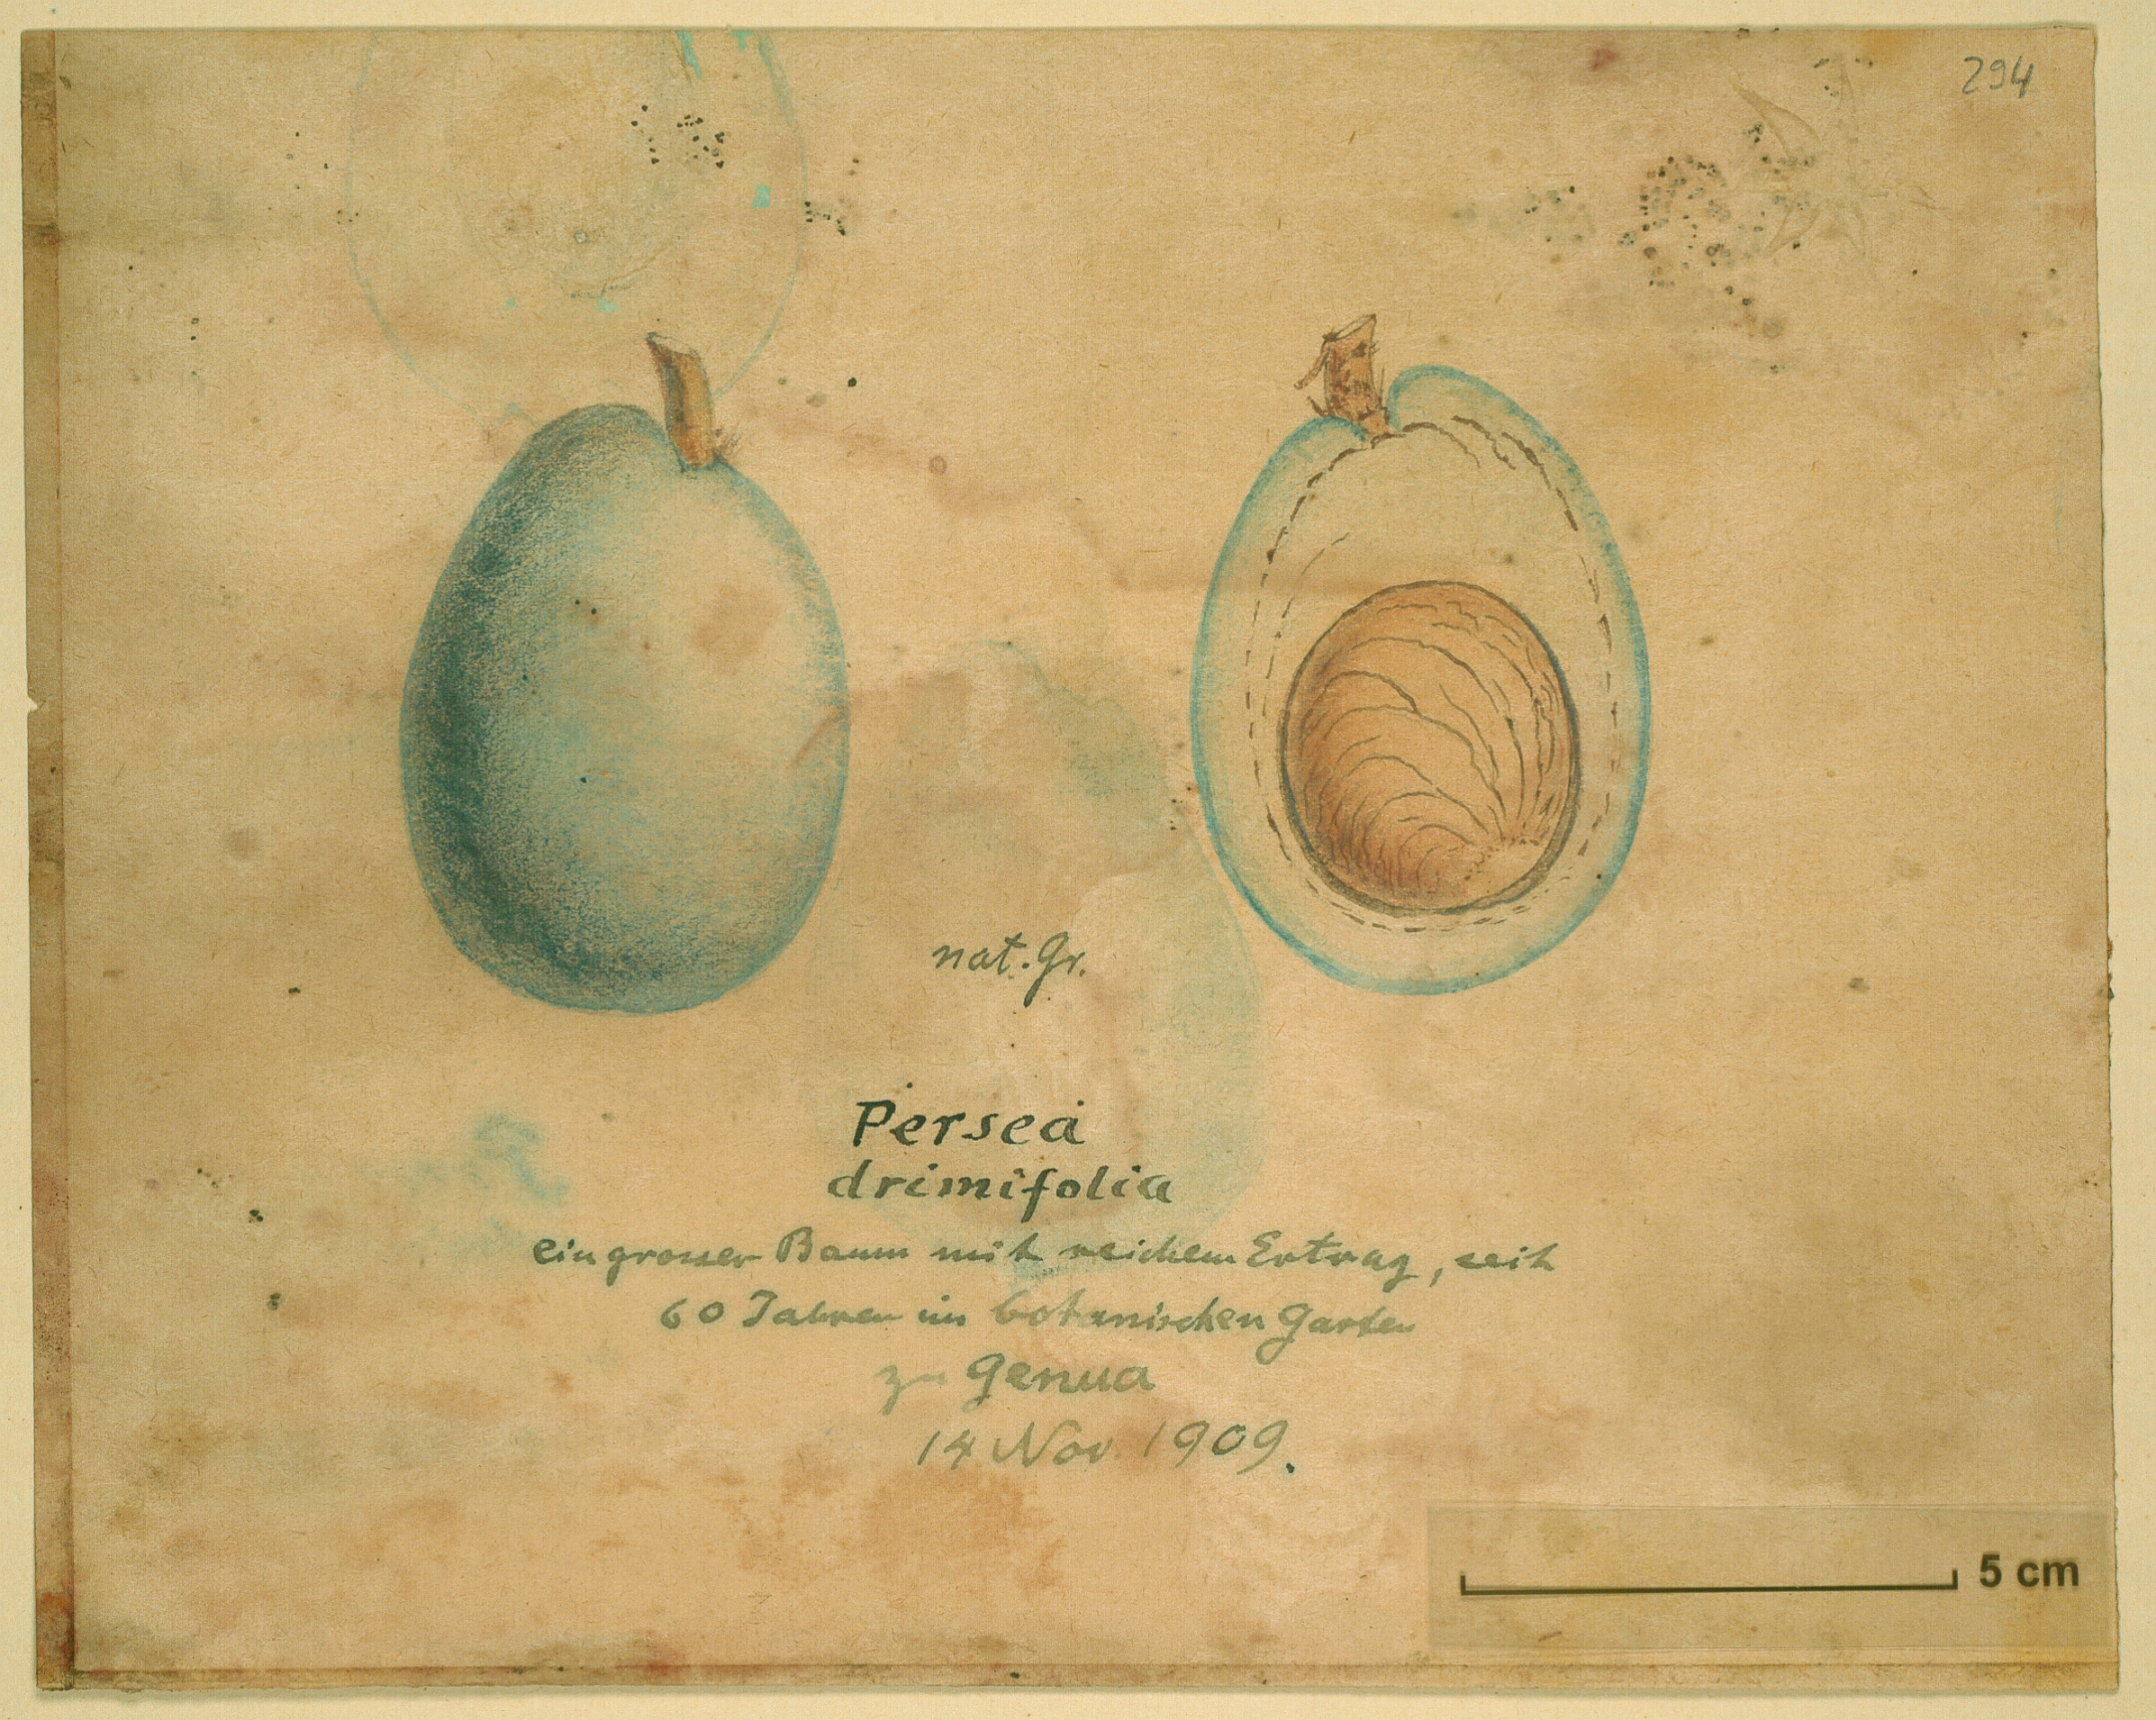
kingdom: Plantae
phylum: Tracheophyta
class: Magnoliopsida
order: Laurales
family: Lauraceae
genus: Persea
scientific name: Persea americana
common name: Avocado
